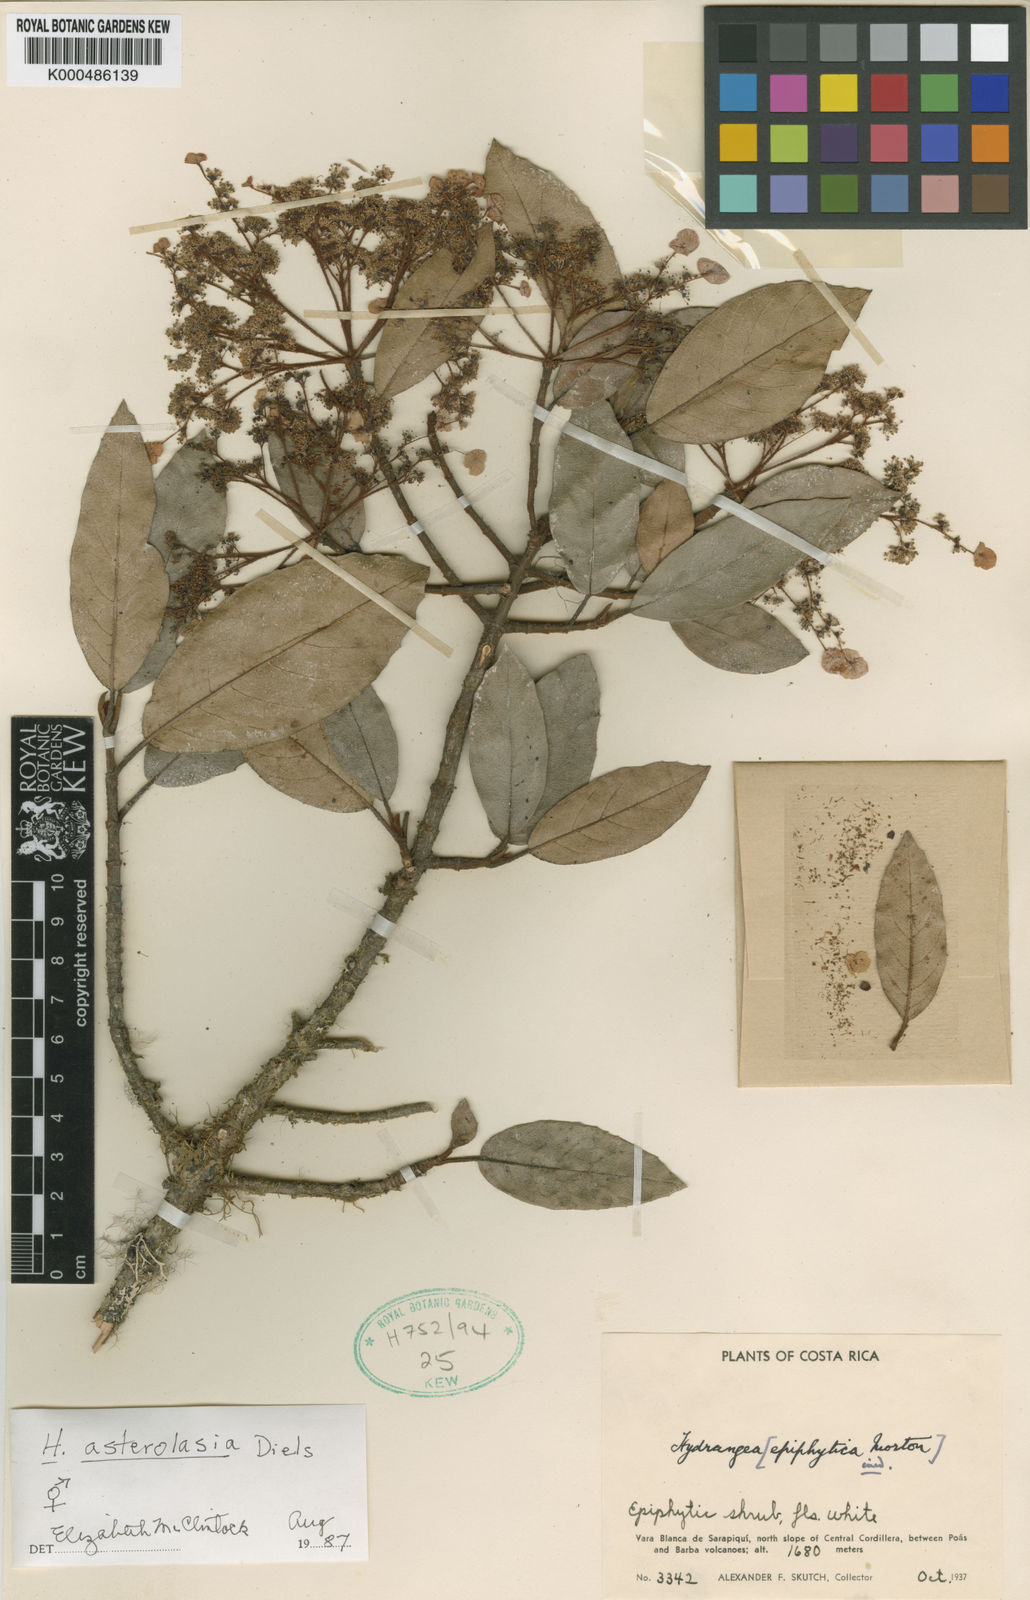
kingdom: Plantae
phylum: Tracheophyta
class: Magnoliopsida
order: Cornales
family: Hydrangeaceae
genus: Hydrangea
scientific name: Hydrangea asterolasia
